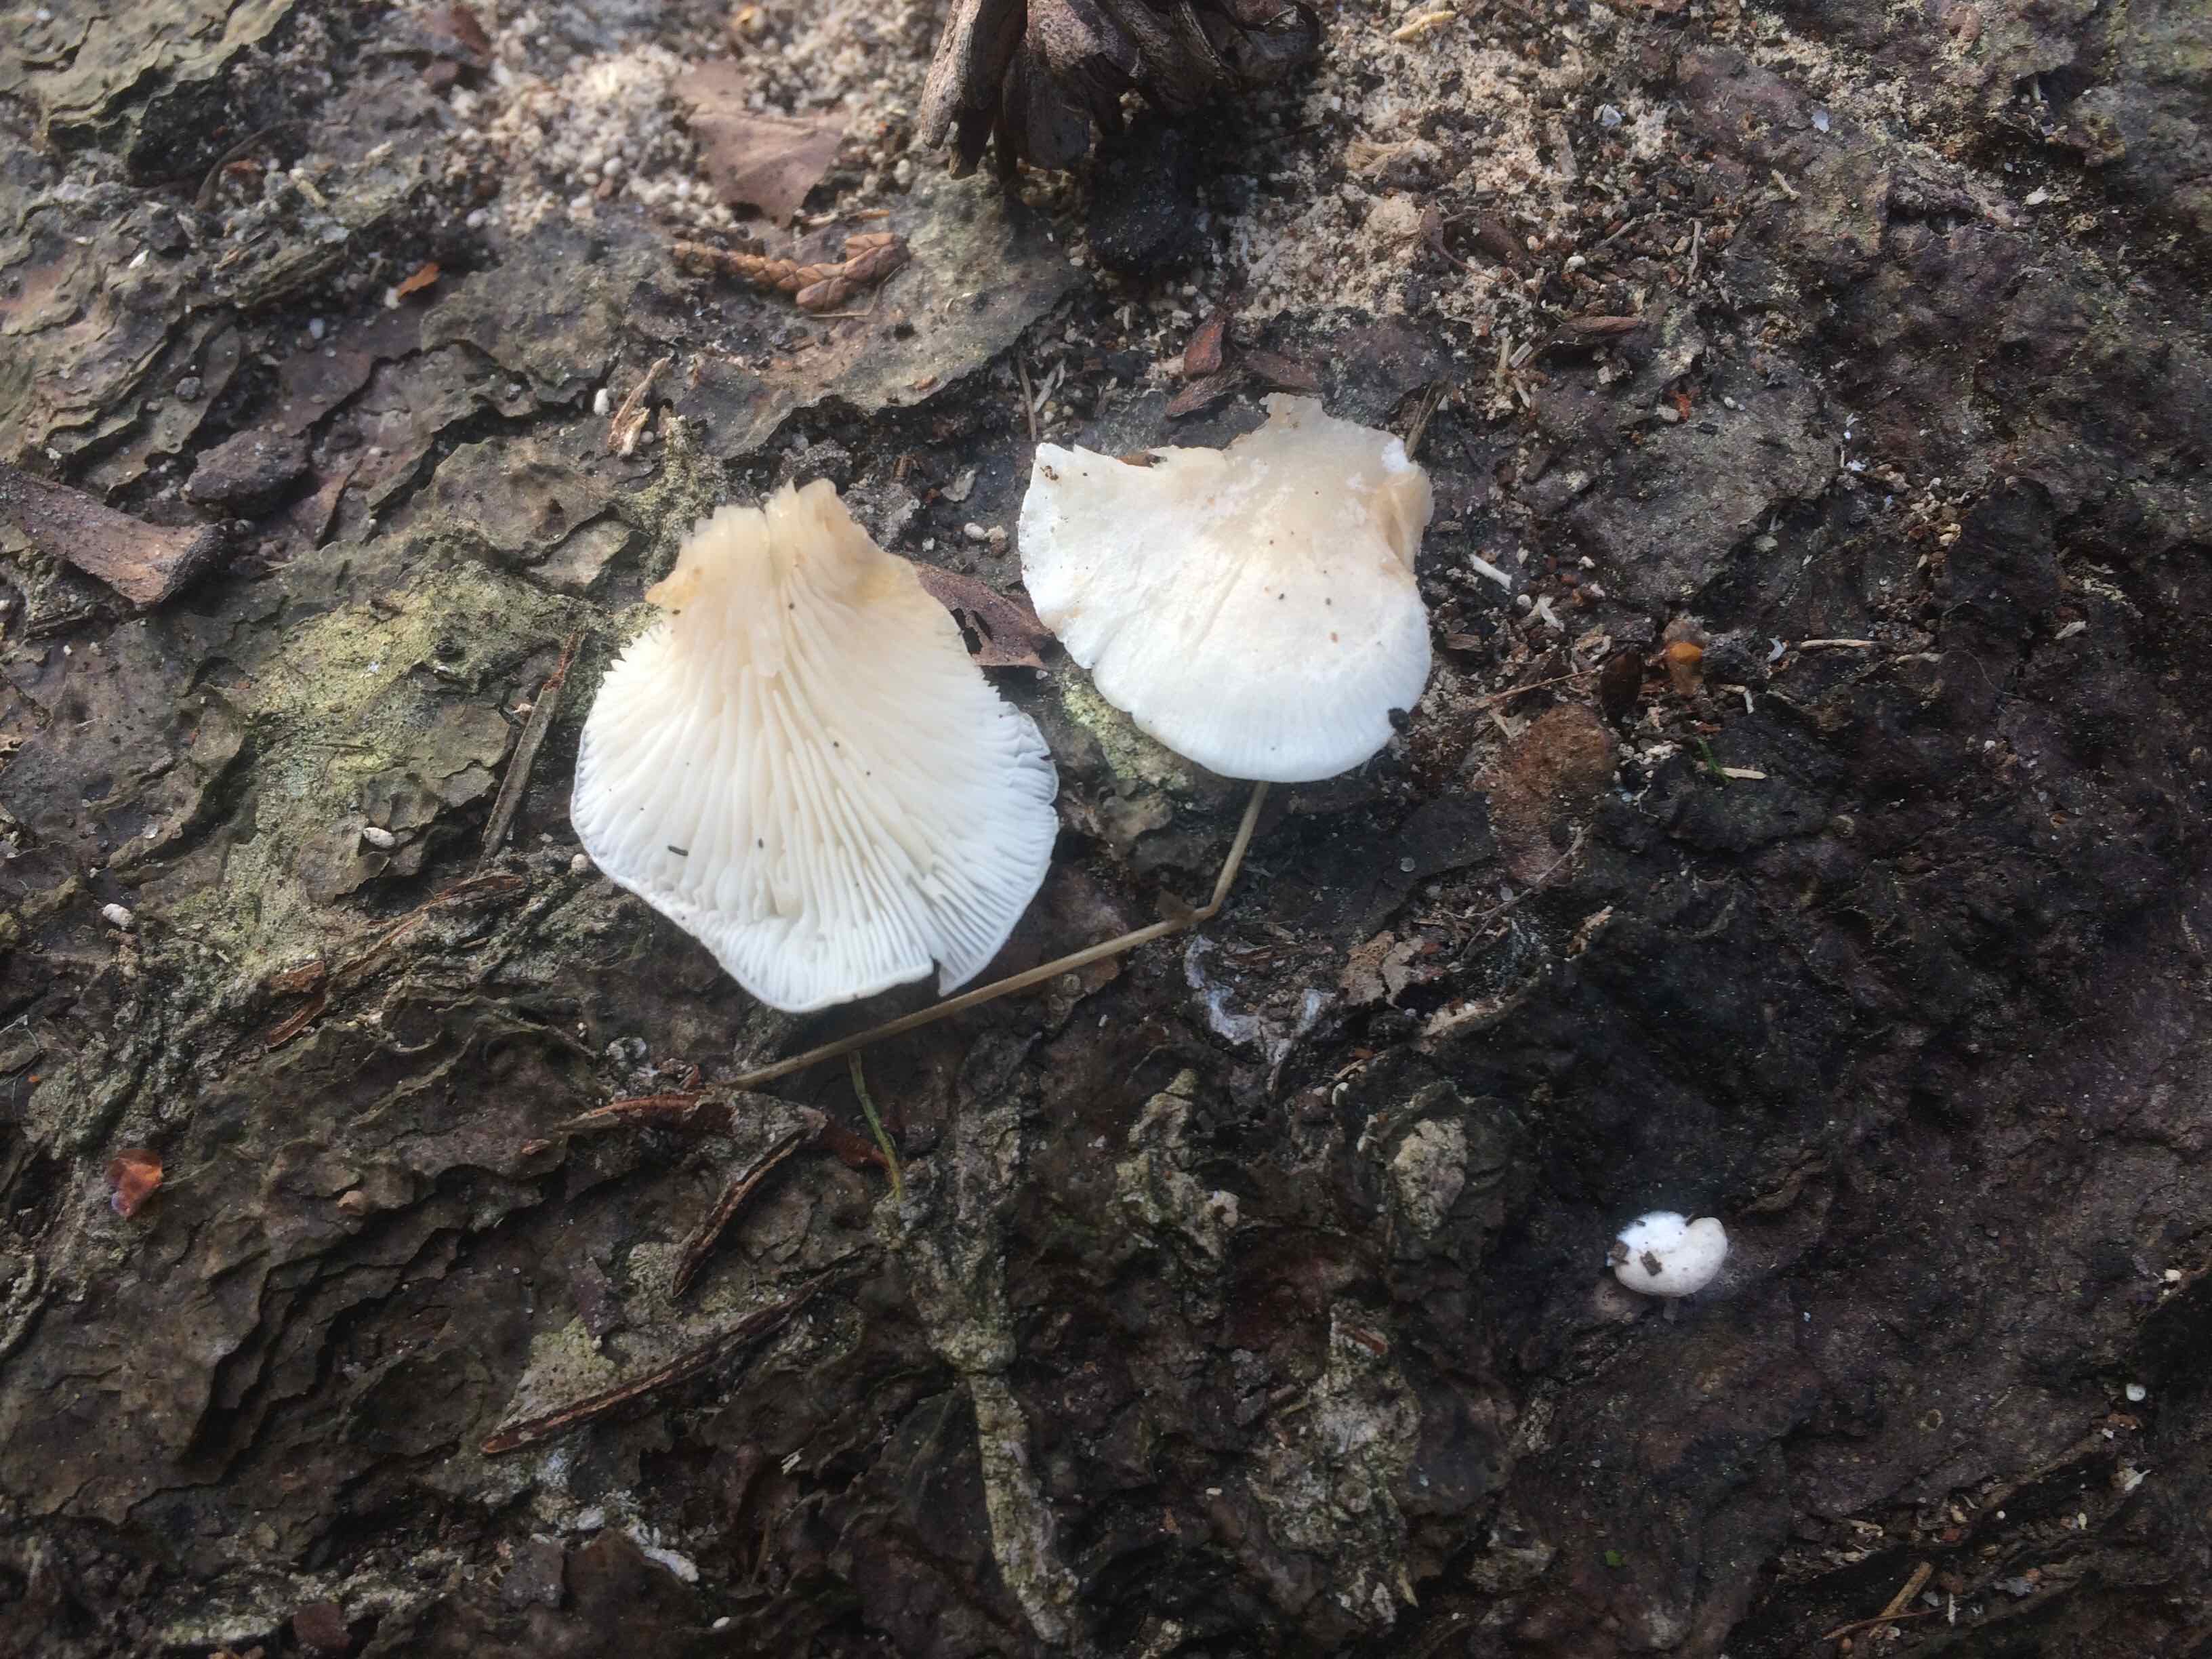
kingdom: Fungi
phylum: Basidiomycota
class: Agaricomycetes
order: Agaricales
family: Crepidotaceae
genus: Crepidotus
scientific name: Crepidotus
